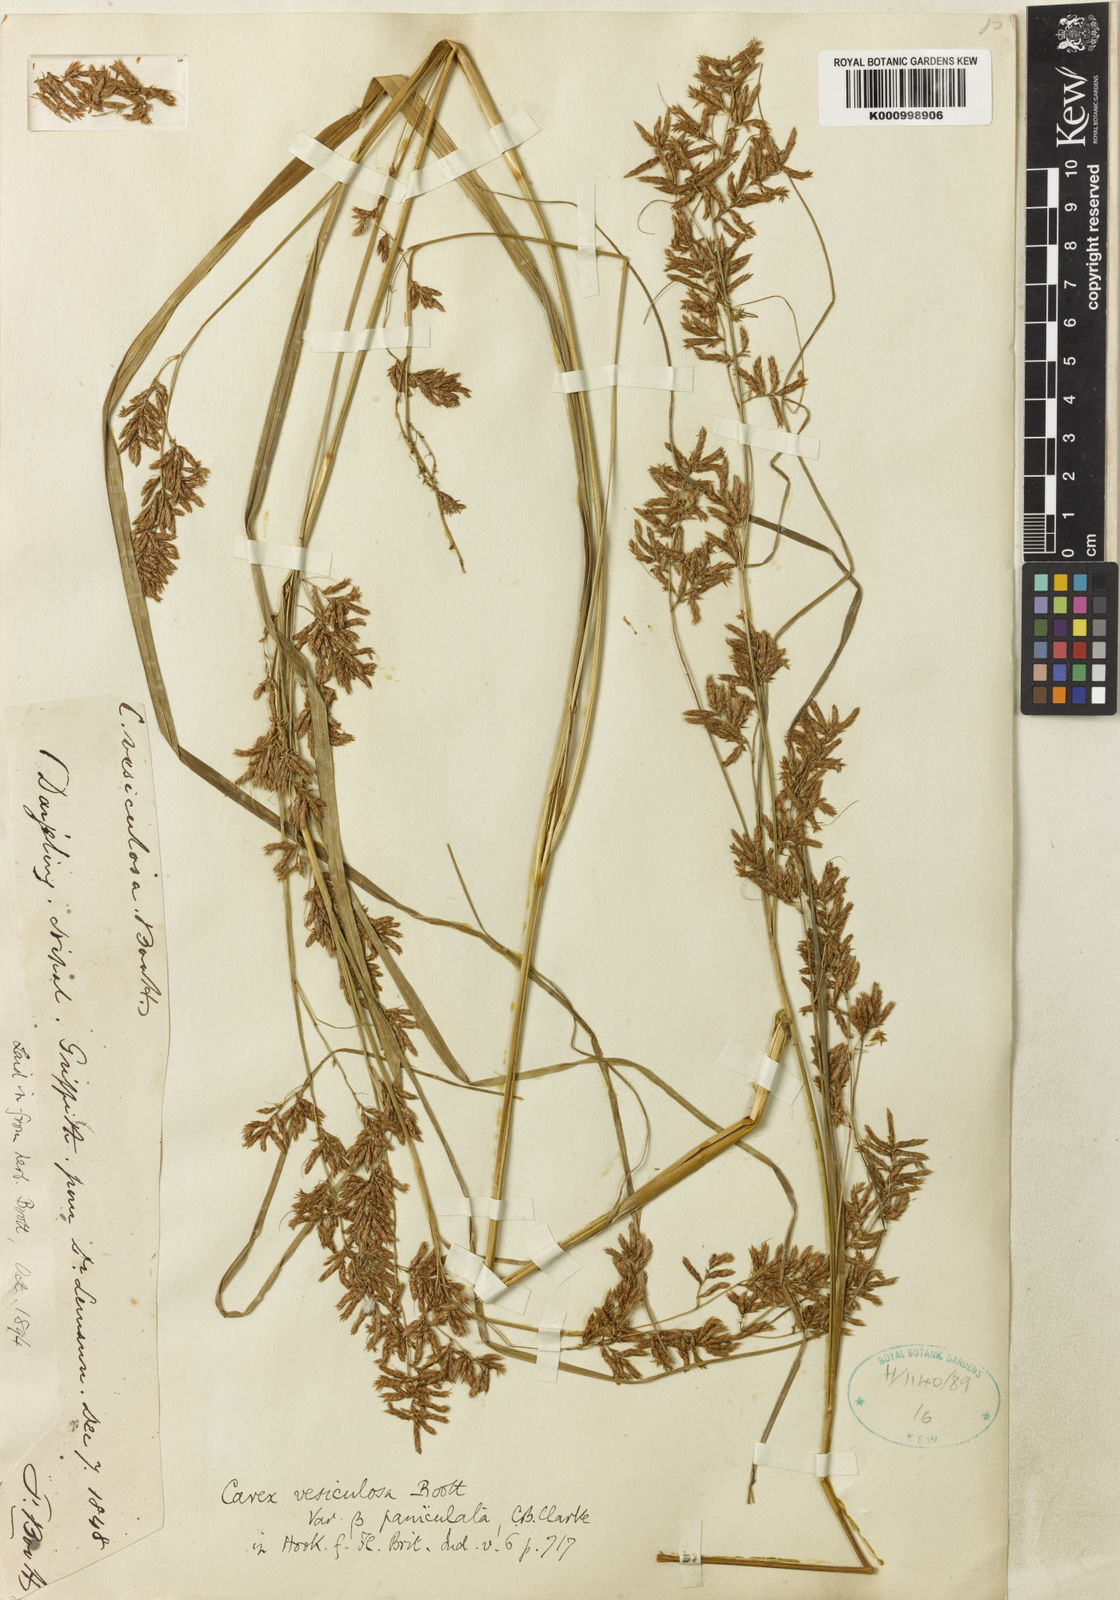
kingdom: Plantae
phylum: Tracheophyta
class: Liliopsida
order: Poales
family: Cyperaceae
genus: Carex
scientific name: Carex vesiculosa
